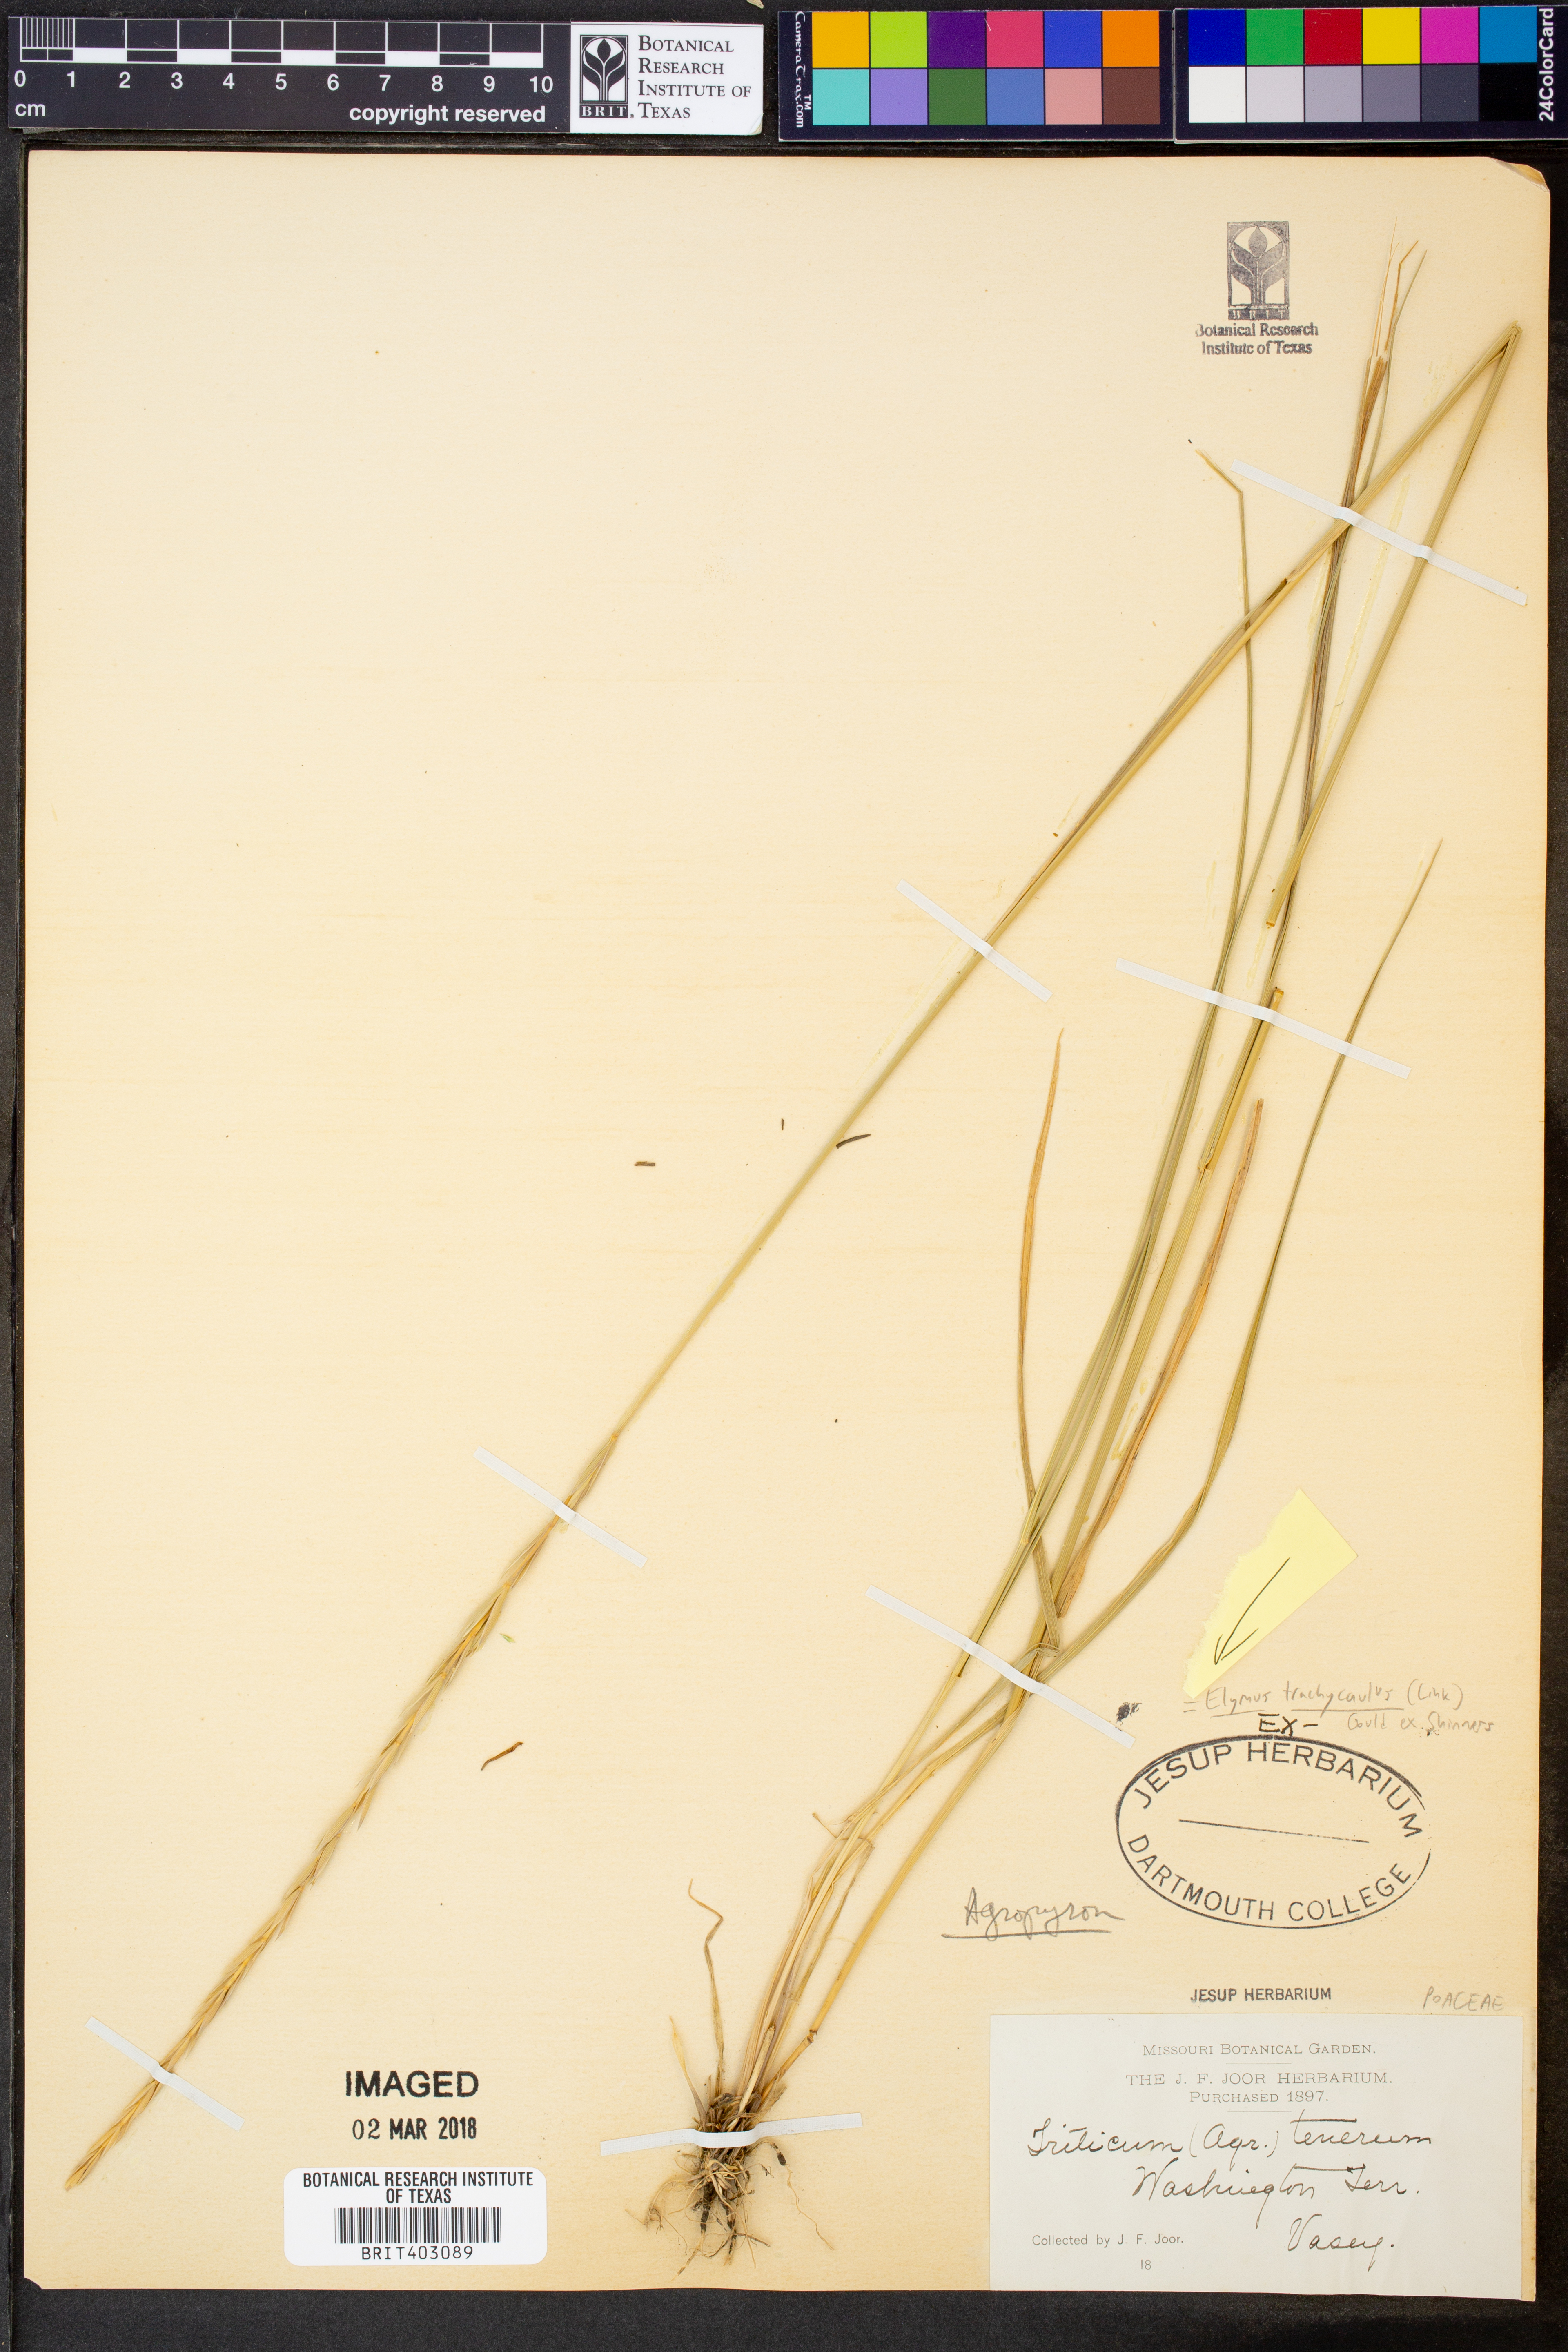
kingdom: Plantae
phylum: Tracheophyta
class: Liliopsida
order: Poales
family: Poaceae
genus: Elymus
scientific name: Elymus violaceus
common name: Arctic wheatgrass
